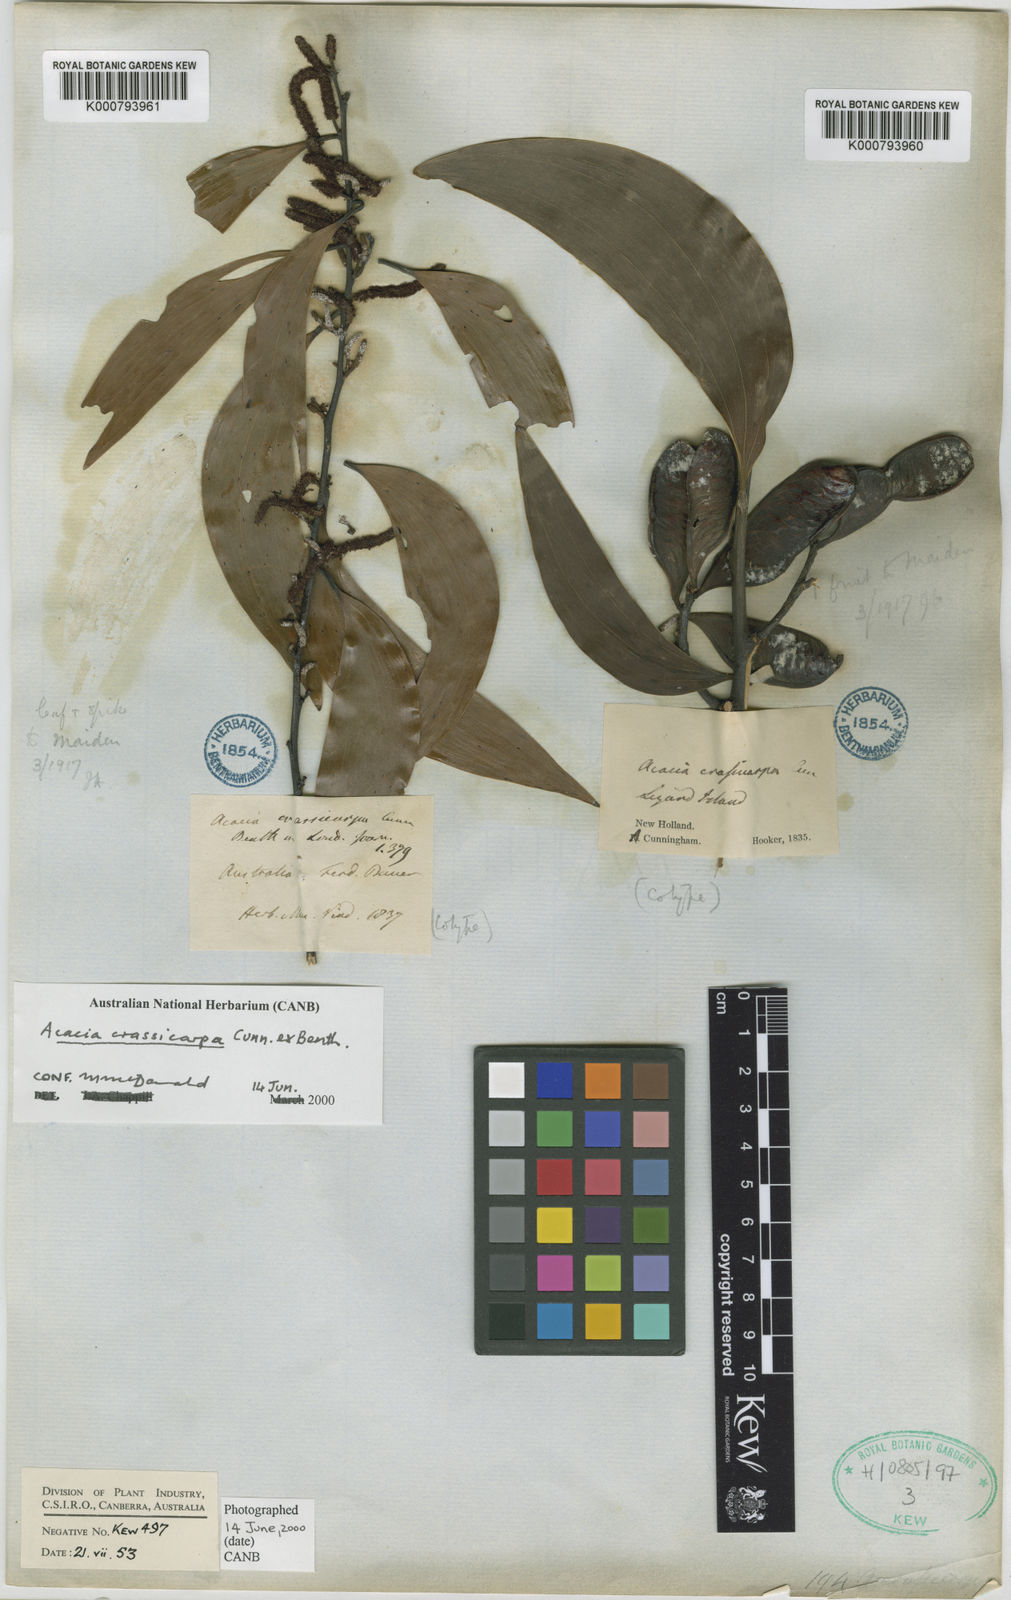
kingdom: Plantae
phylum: Tracheophyta
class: Magnoliopsida
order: Fabales
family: Fabaceae
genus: Acacia
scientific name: Acacia aulacocarpa
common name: Black wattle
